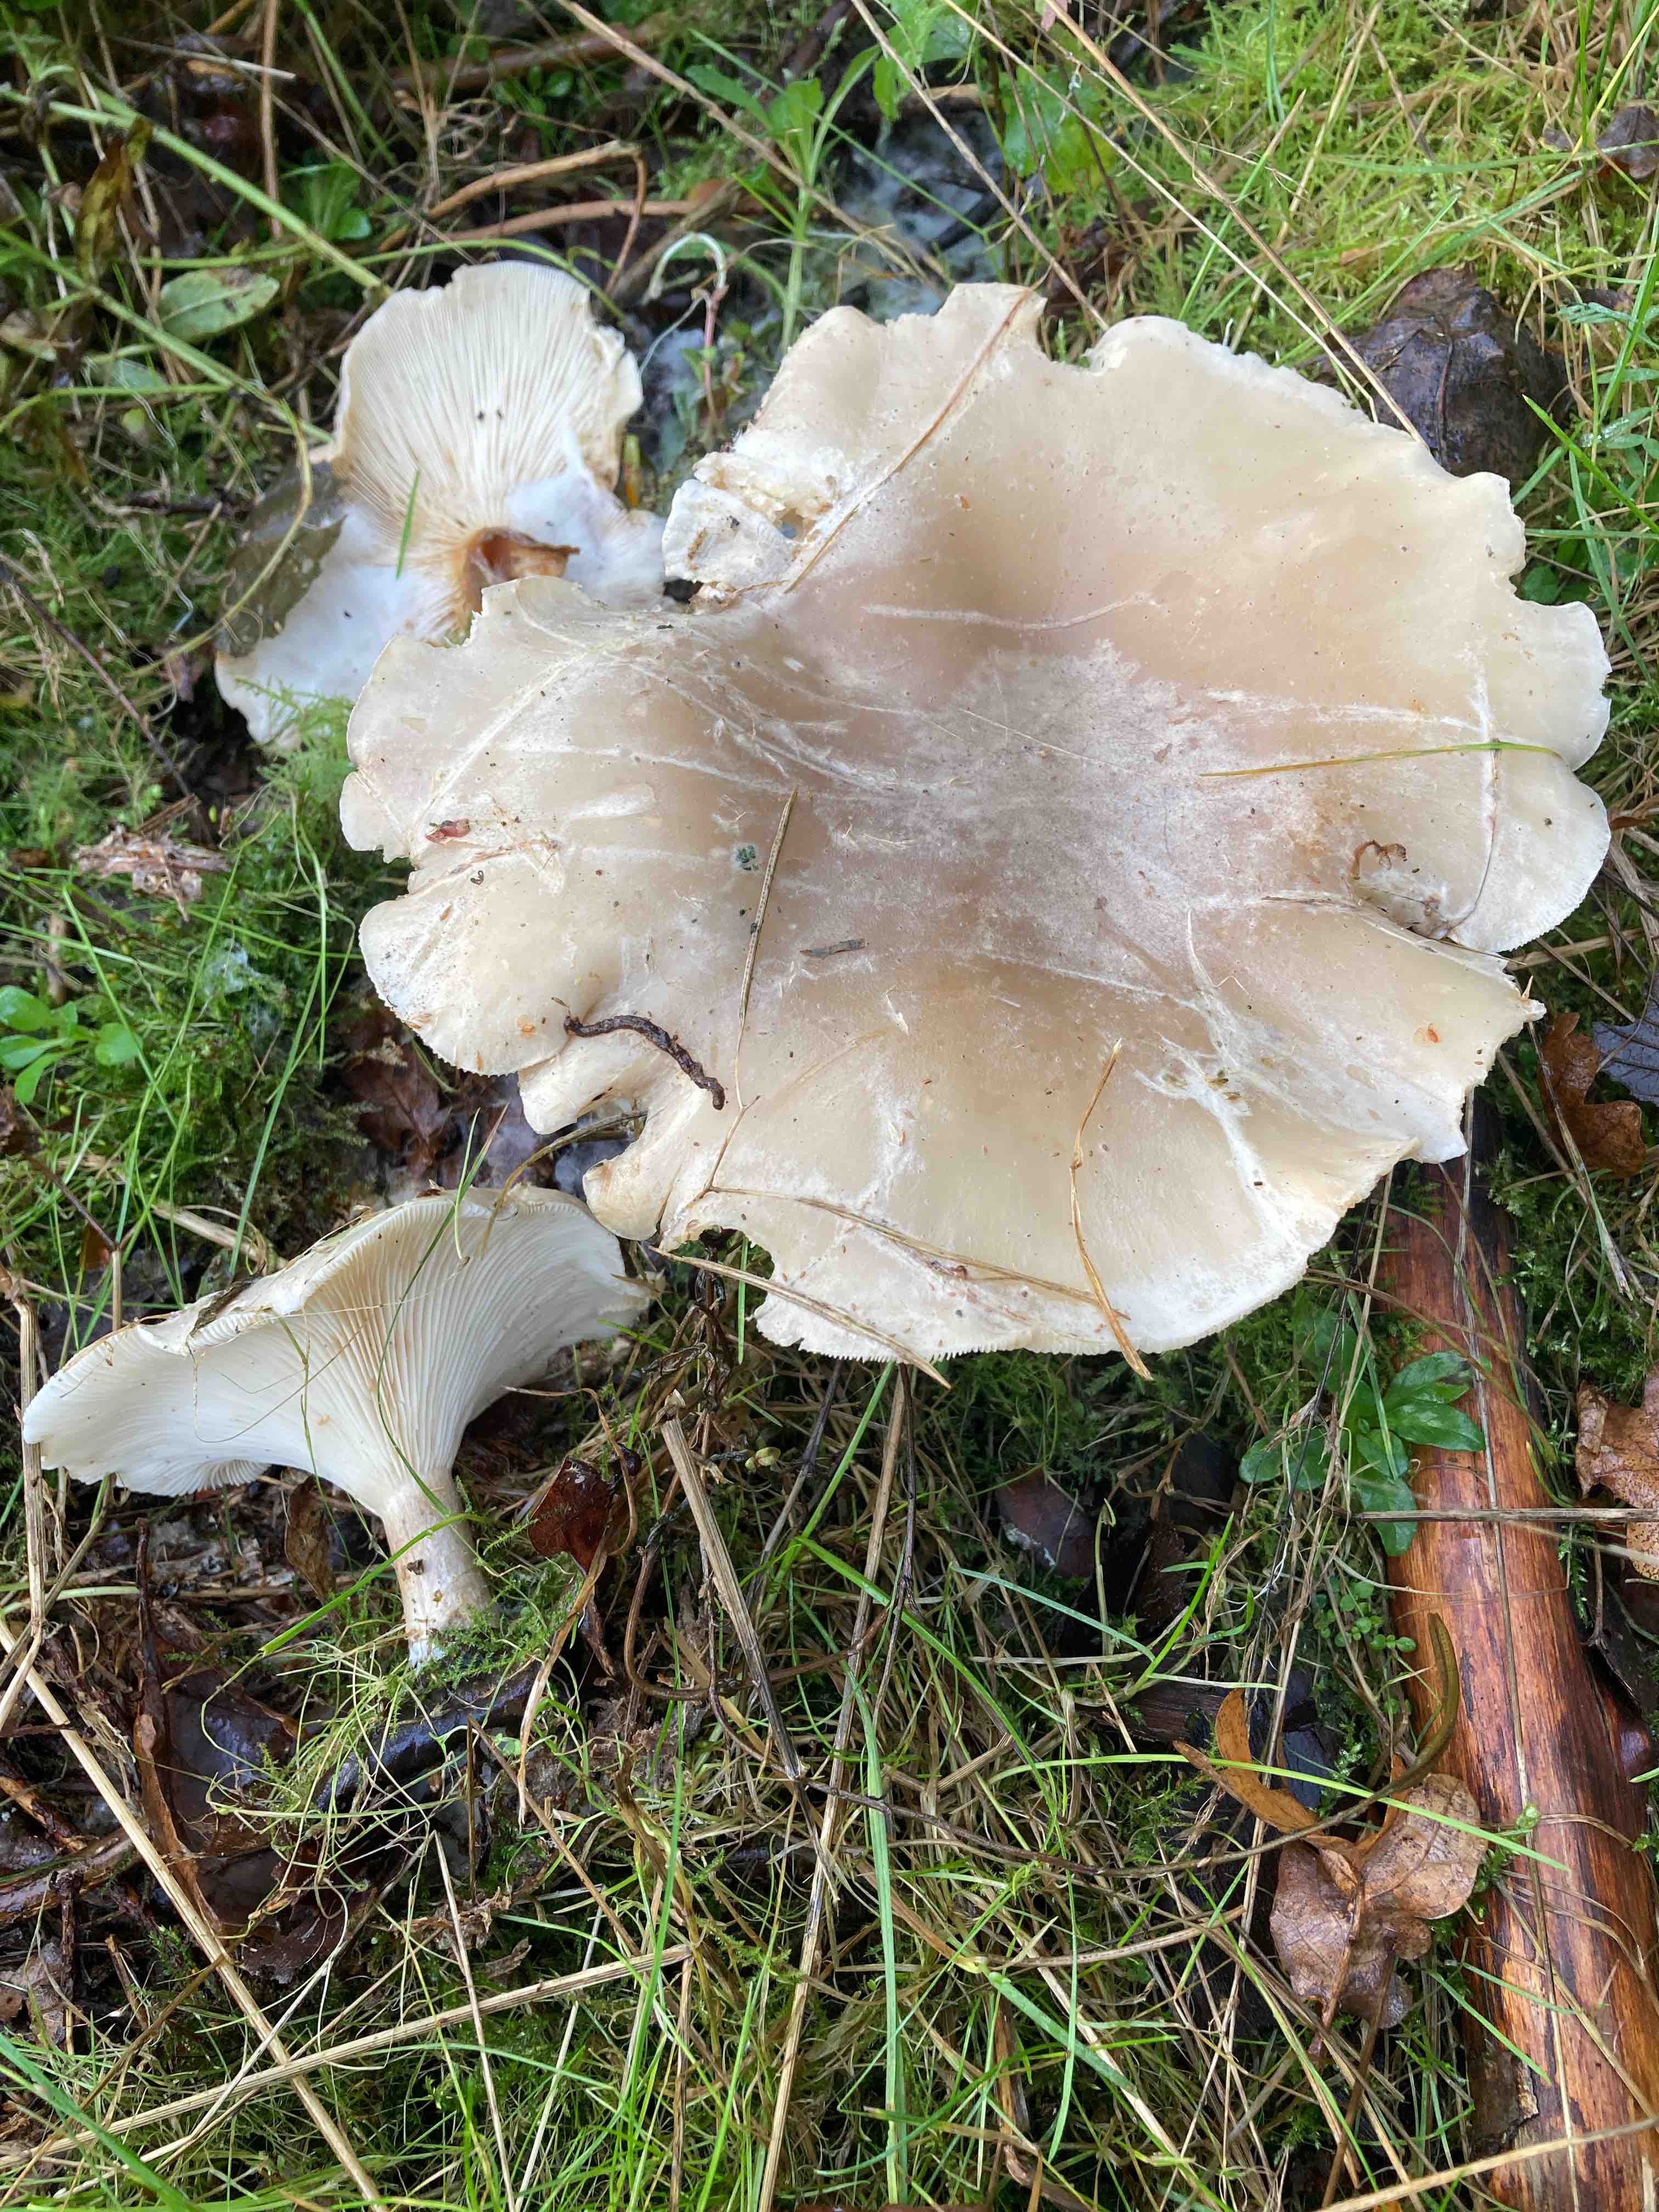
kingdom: Fungi
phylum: Basidiomycota
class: Agaricomycetes
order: Agaricales
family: Tricholomataceae
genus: Clitocybe
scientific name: Clitocybe nebularis
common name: tåge-tragthat
